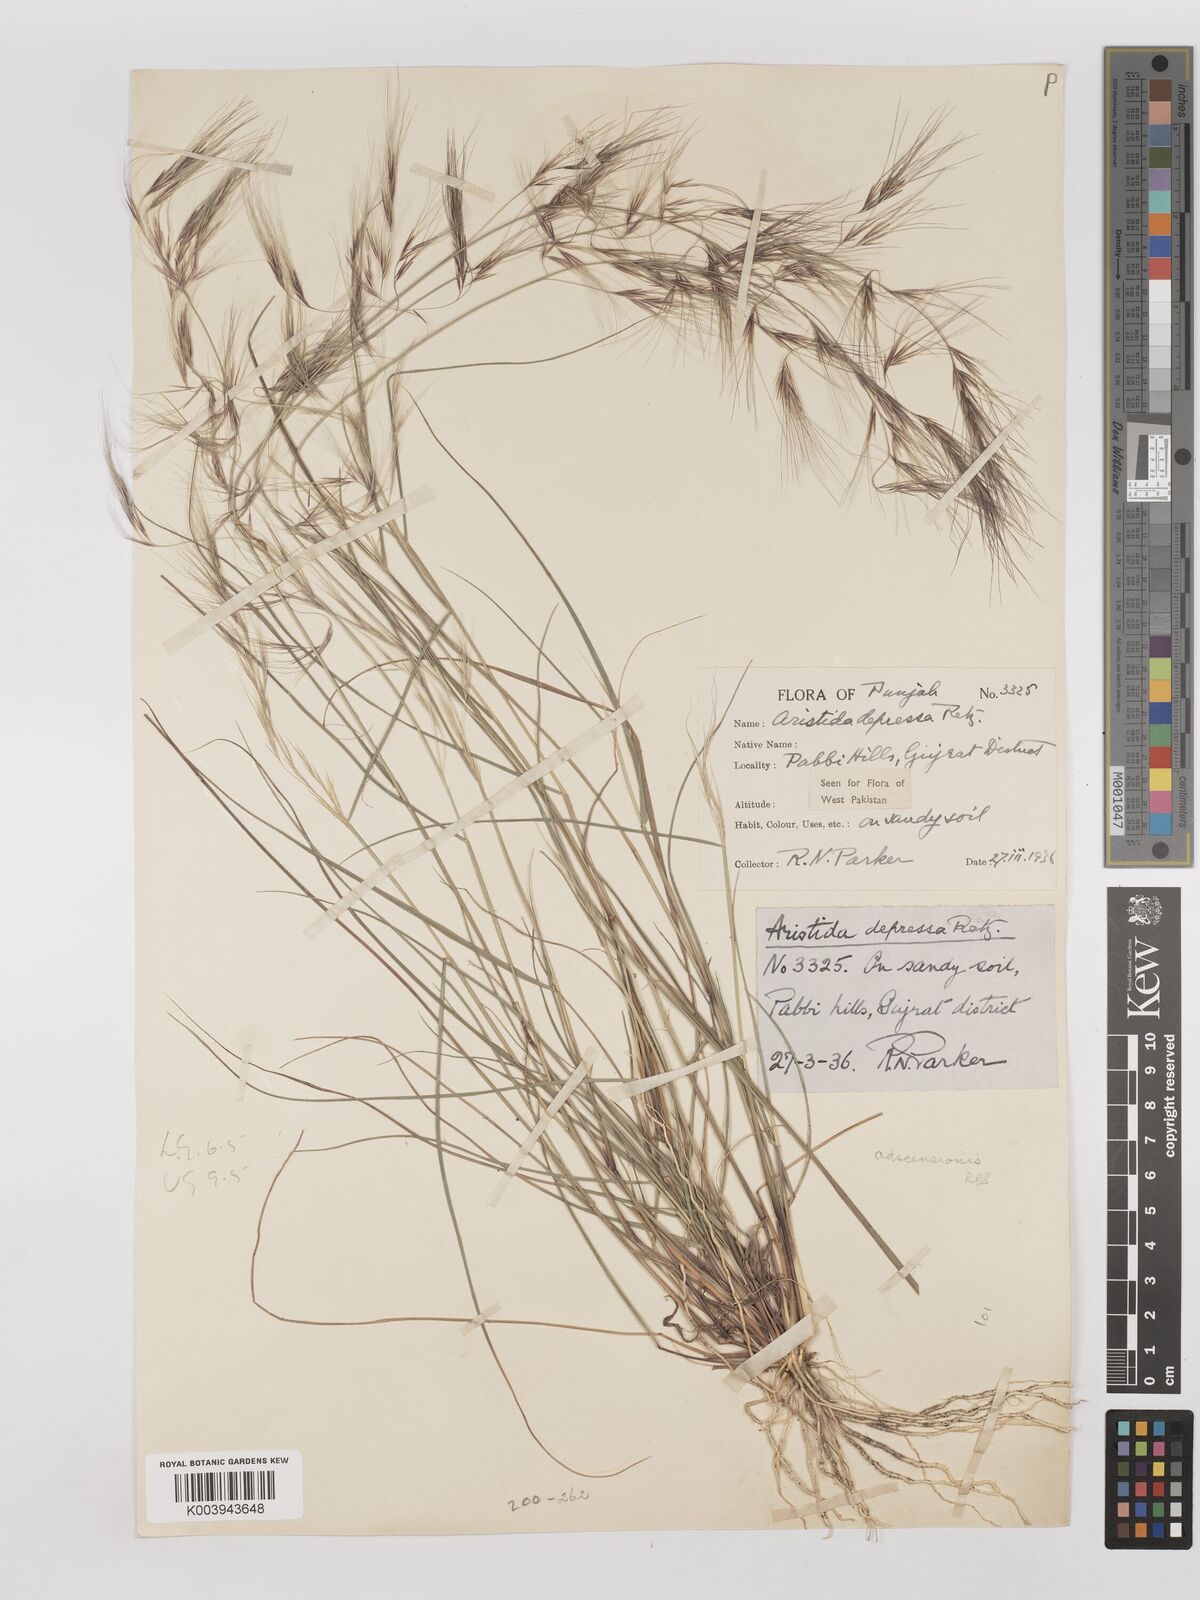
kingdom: Plantae
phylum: Tracheophyta
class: Liliopsida
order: Poales
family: Poaceae
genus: Aristida
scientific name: Aristida adscensionis
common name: Sixweeks threeawn
